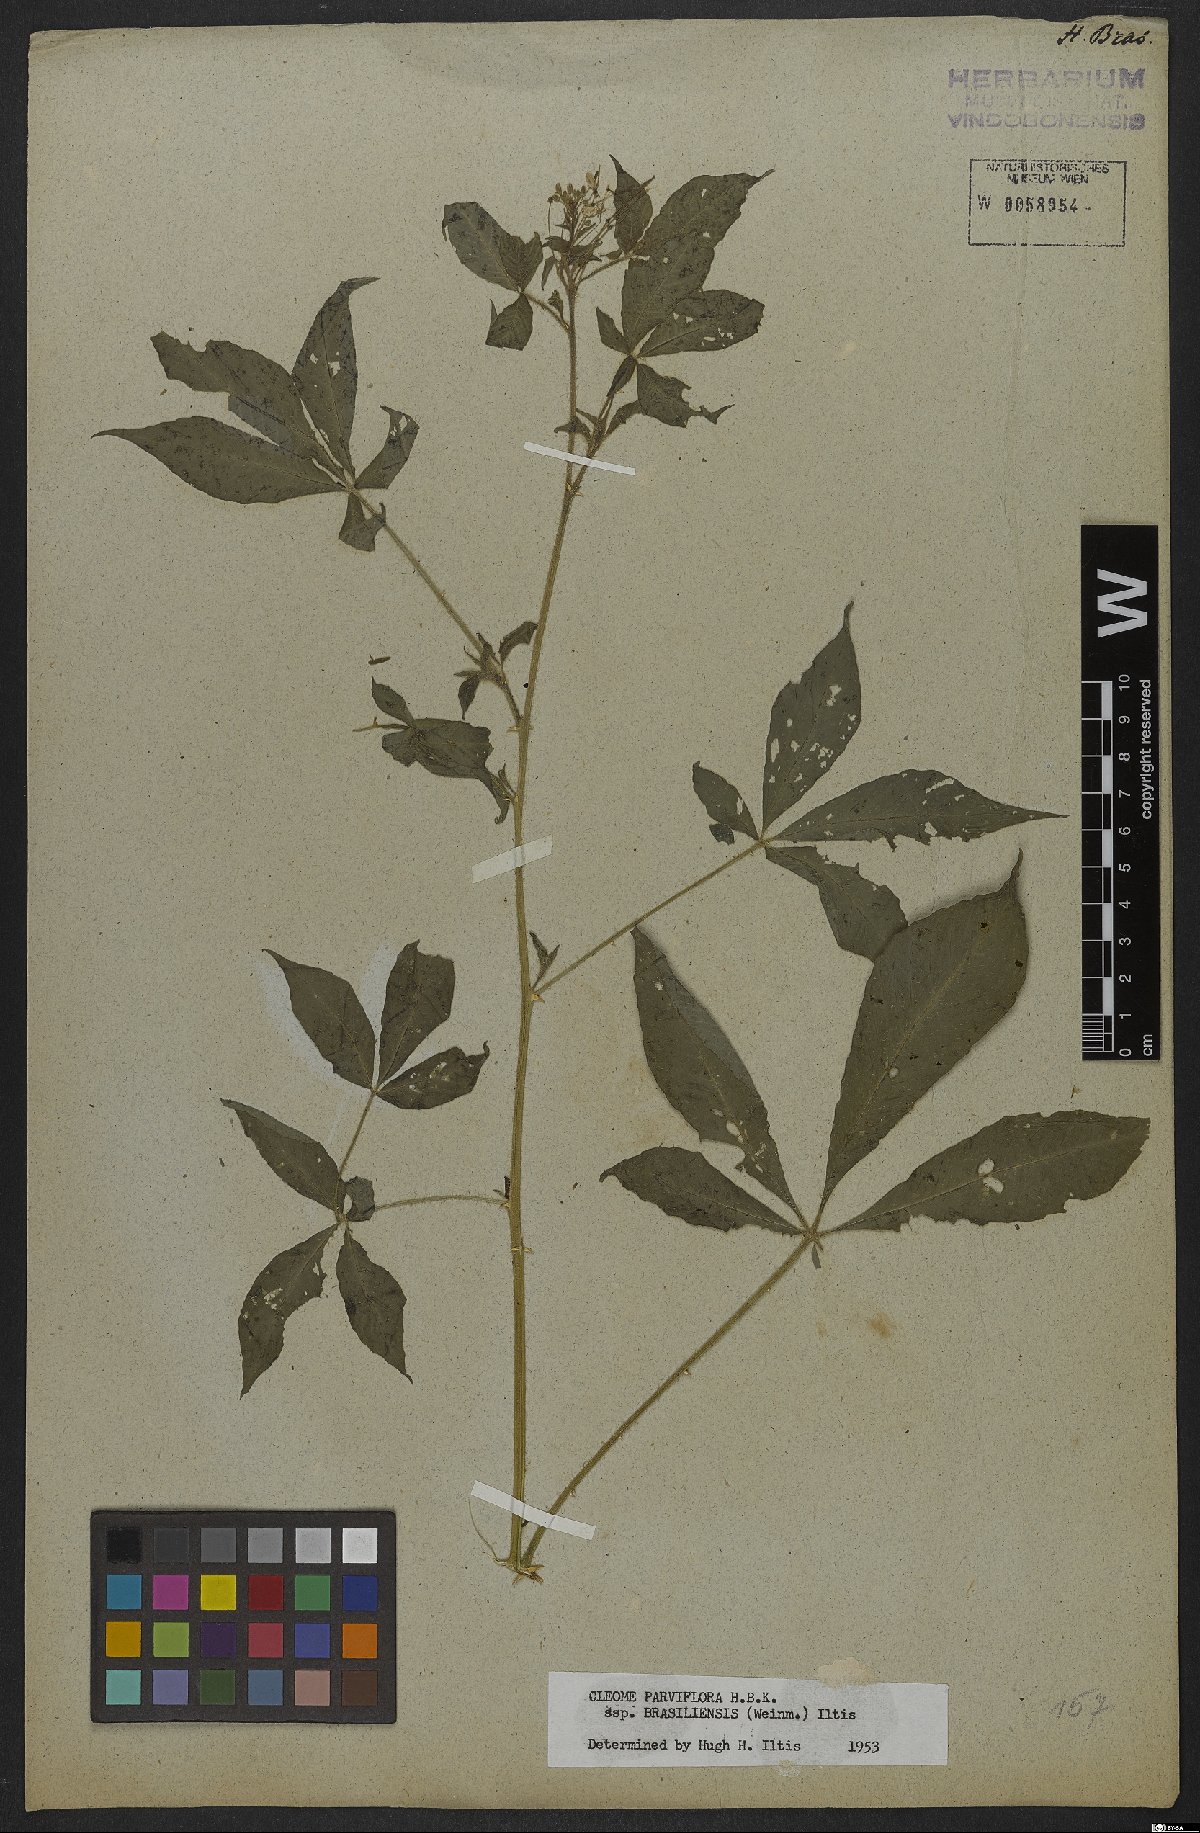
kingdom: Plantae
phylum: Tracheophyta
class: Magnoliopsida
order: Brassicales
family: Cleomaceae
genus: Tarenaya
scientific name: Tarenaya parviflora
